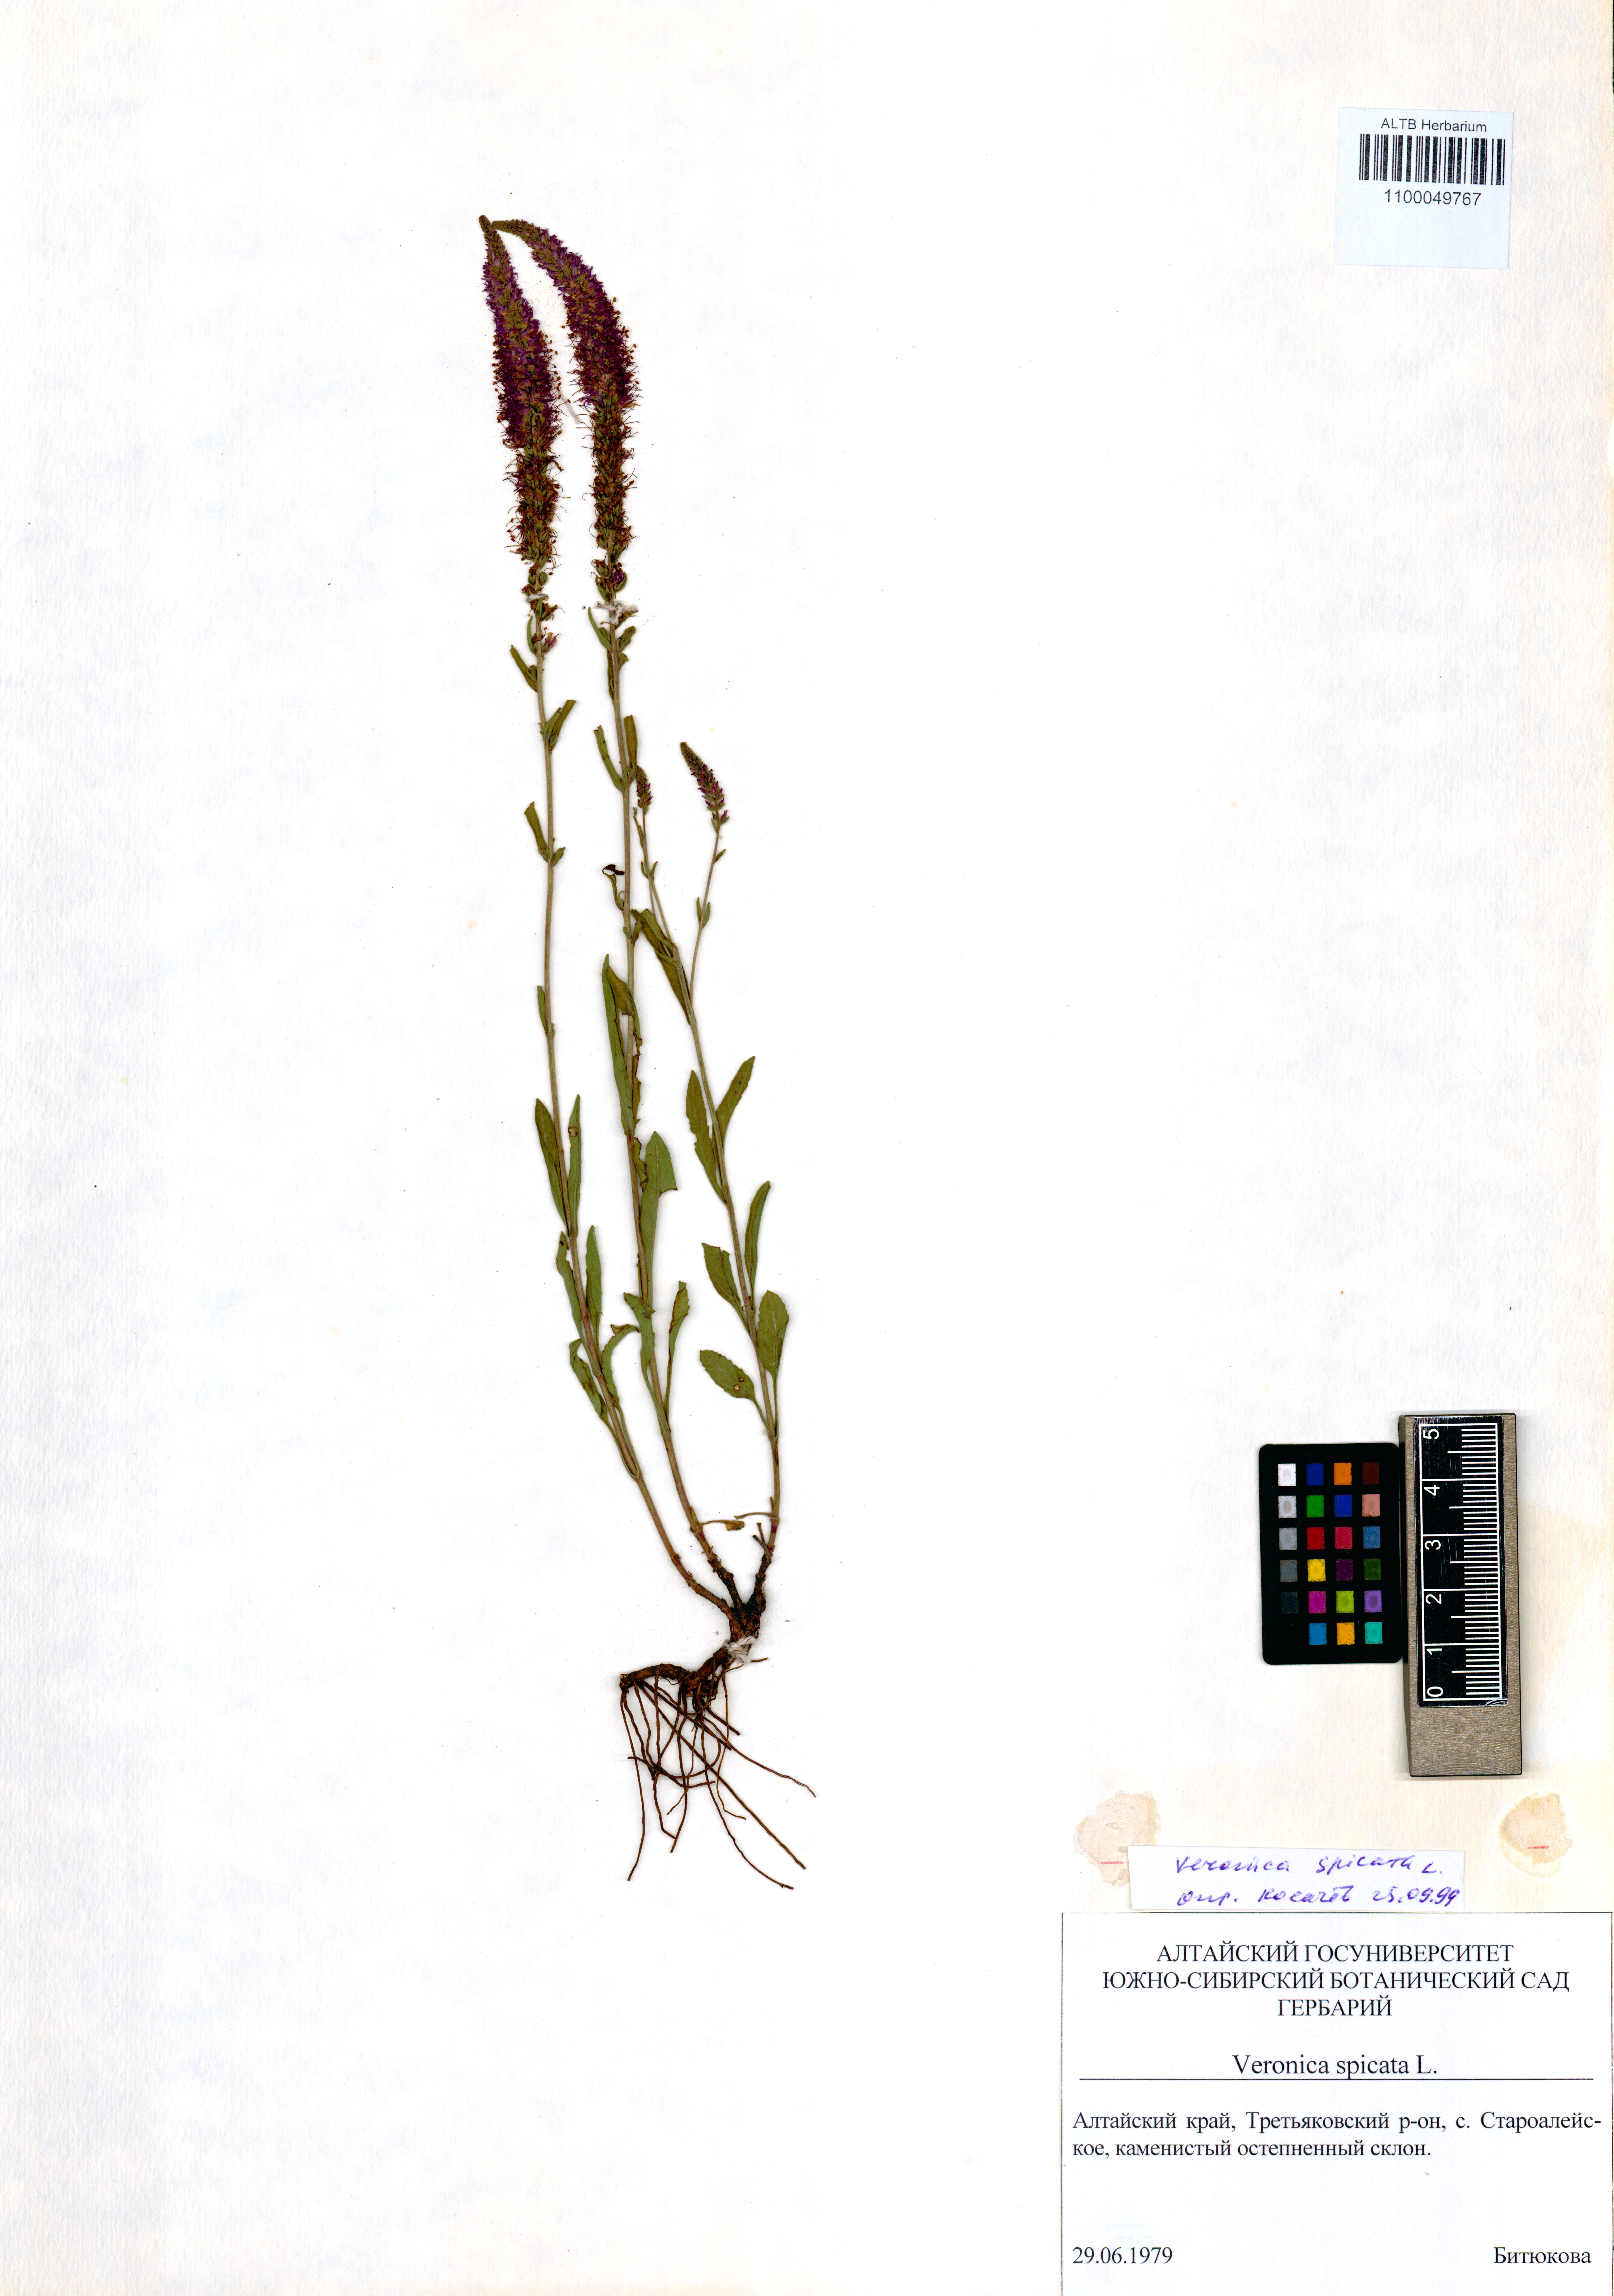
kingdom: Plantae
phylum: Tracheophyta
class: Magnoliopsida
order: Lamiales
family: Plantaginaceae
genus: Veronica
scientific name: Veronica spicata
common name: Spiked speedwell
